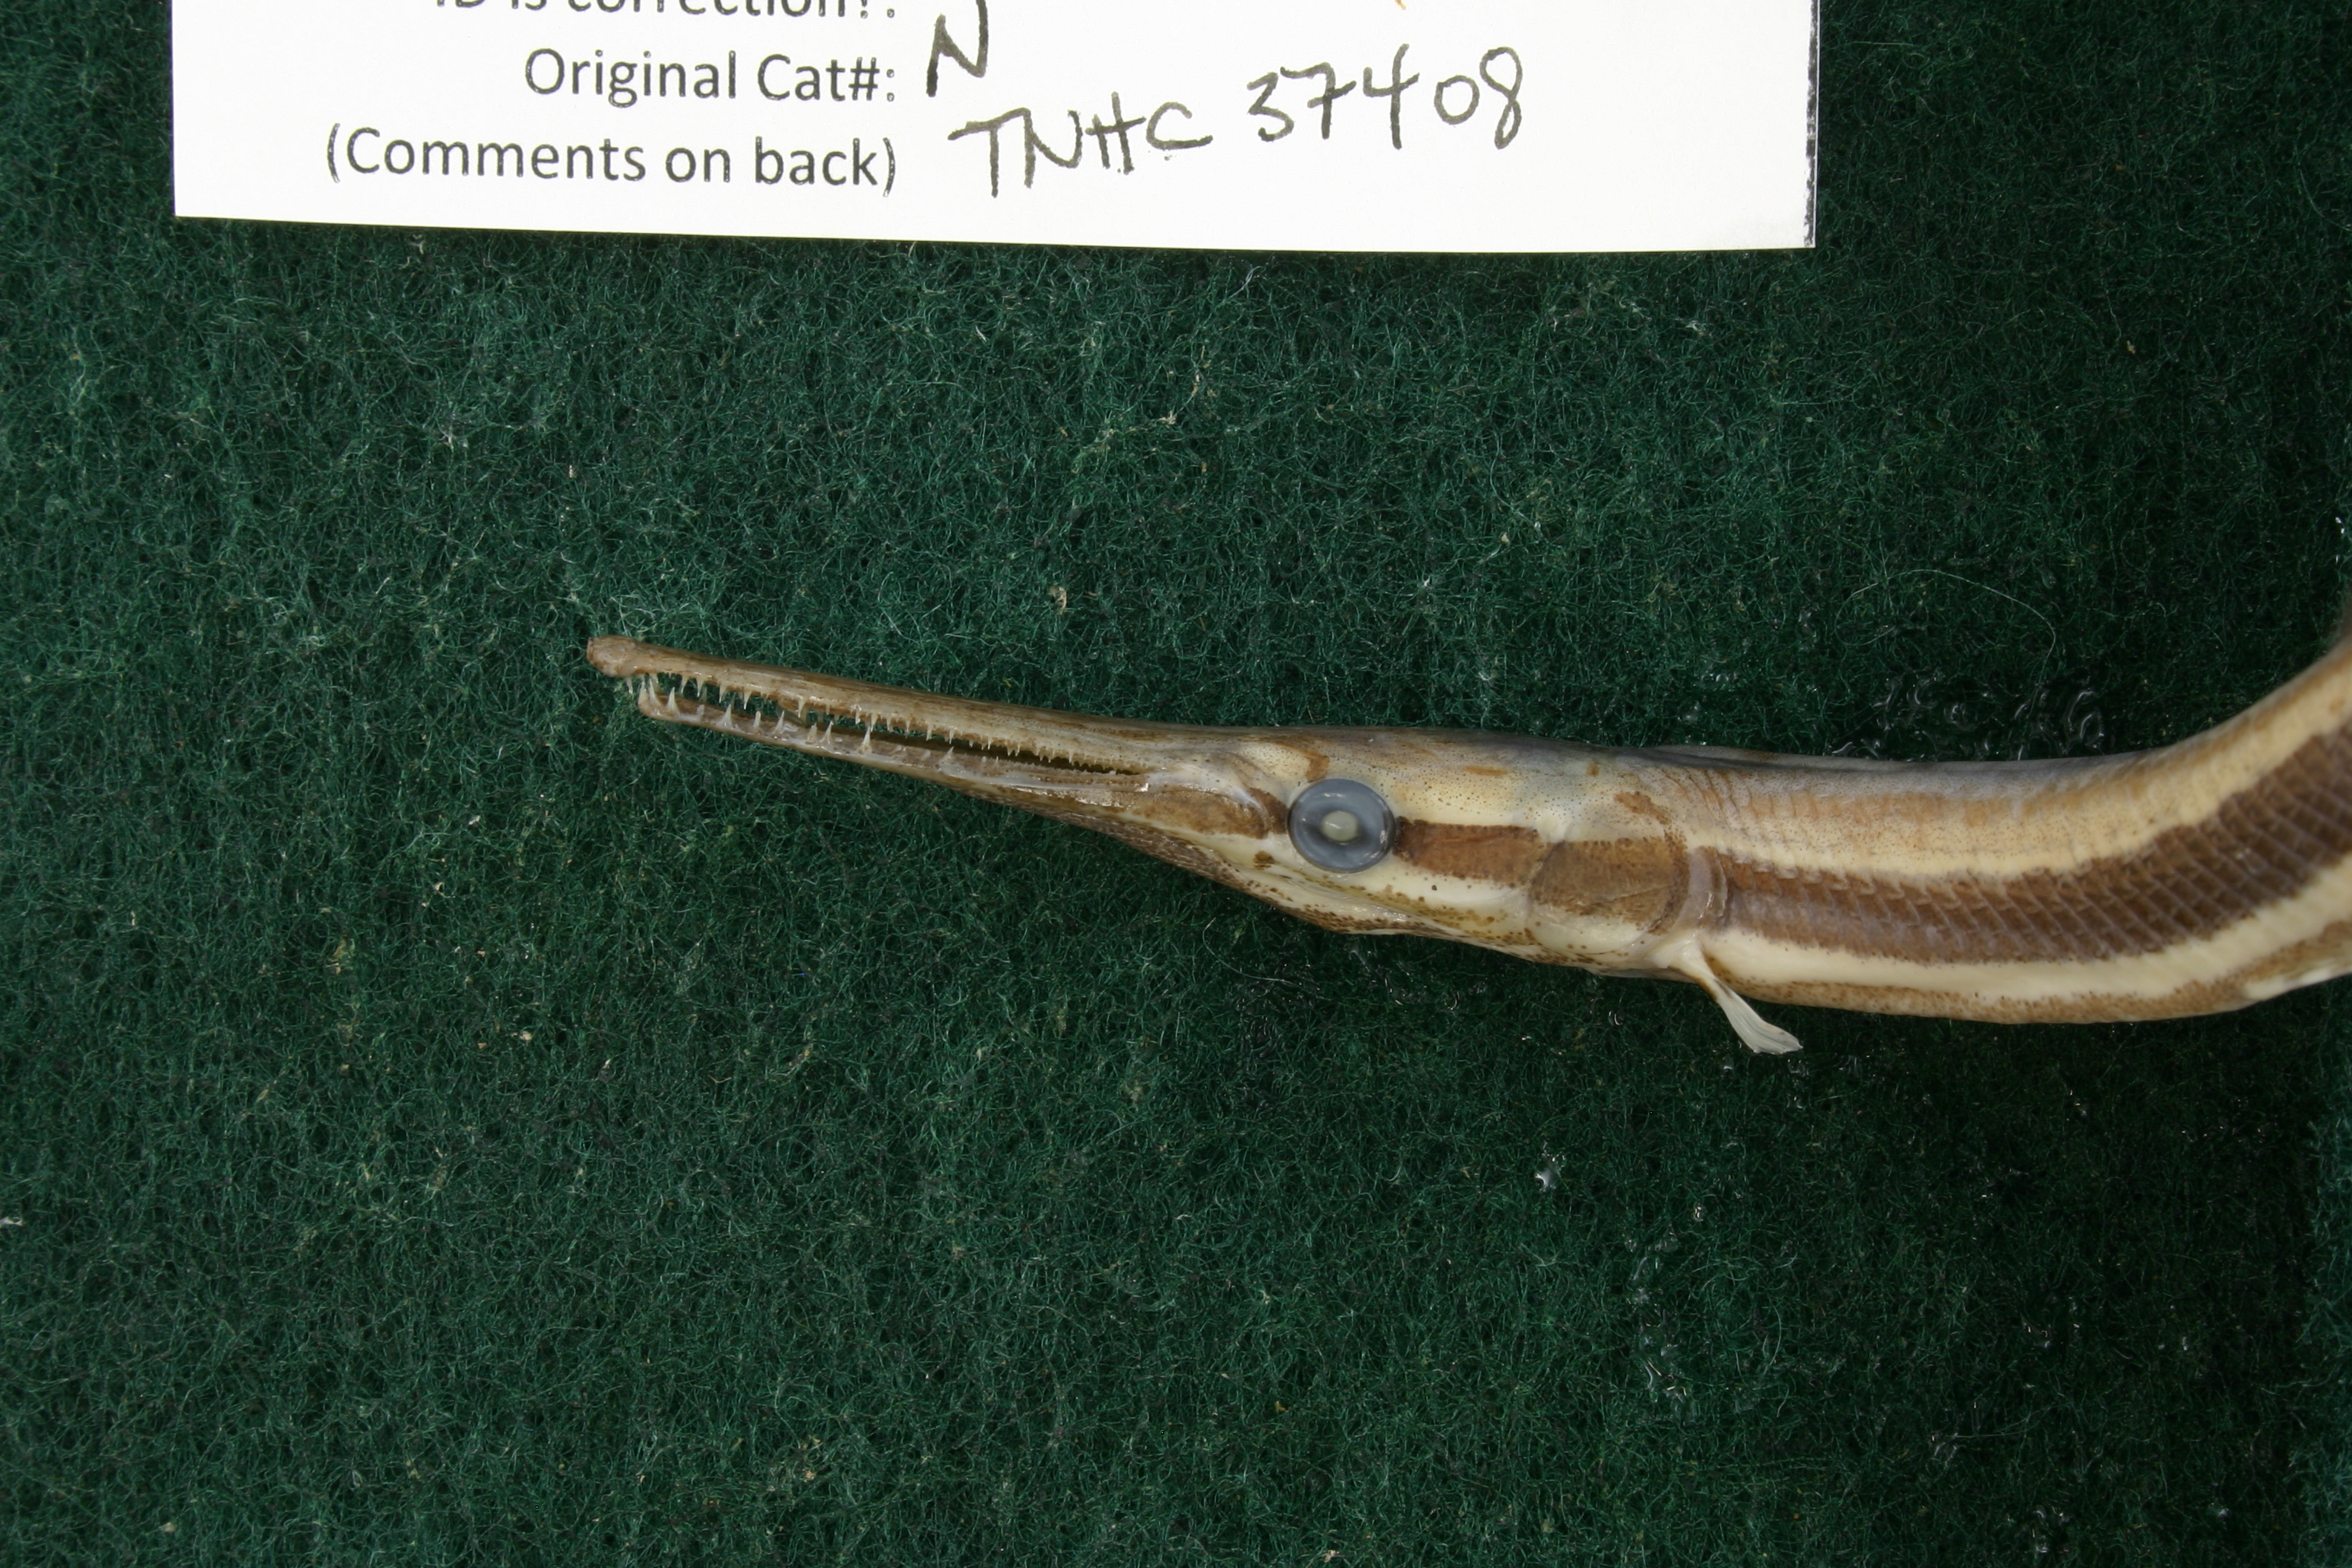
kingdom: Animalia
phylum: Chordata
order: Lepisosteiformes
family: Lepisosteidae
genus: Lepisosteus
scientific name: Lepisosteus oculatus
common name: Spotted gar
